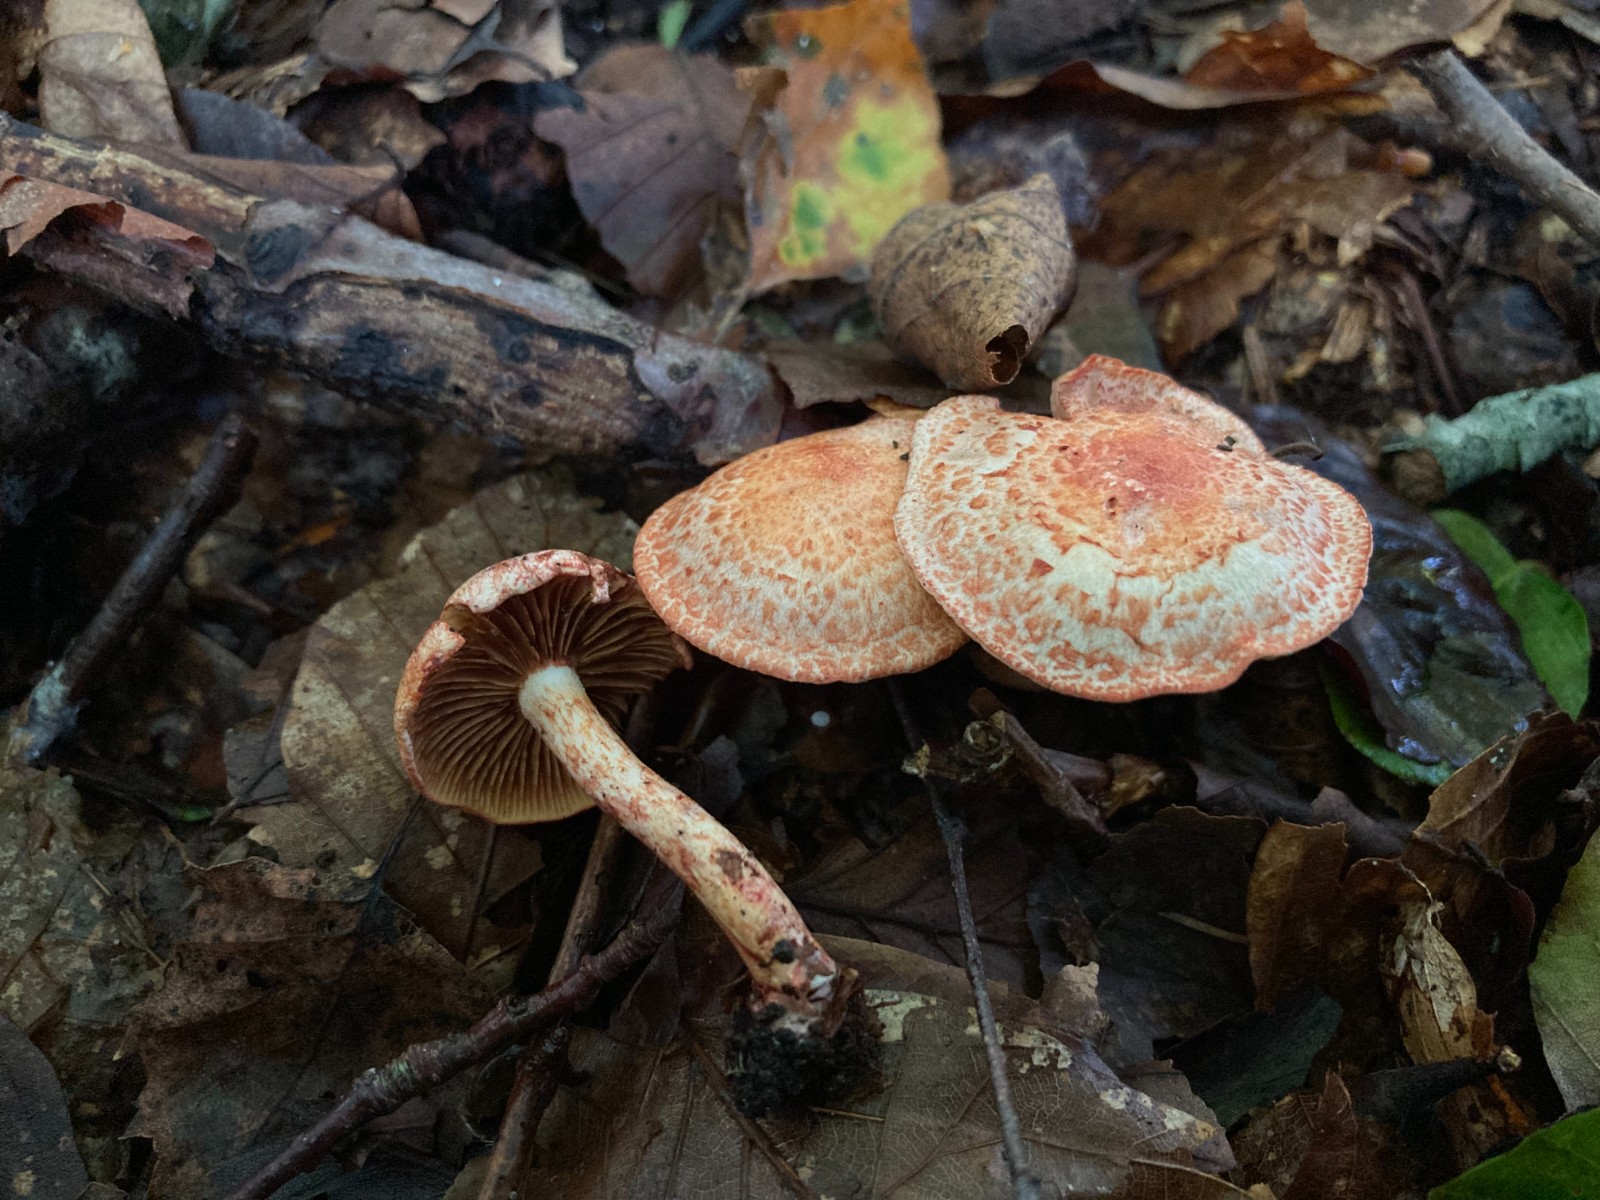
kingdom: Fungi
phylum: Basidiomycota
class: Agaricomycetes
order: Agaricales
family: Cortinariaceae
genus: Cortinarius
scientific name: Cortinarius bolaris
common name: cinnoberskællet slørhat
